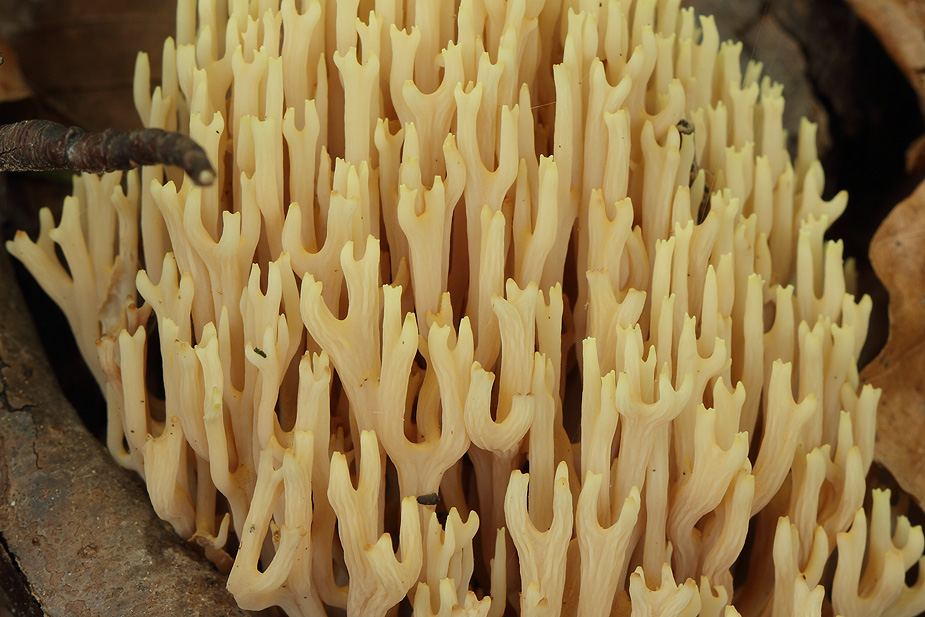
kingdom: Fungi
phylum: Basidiomycota
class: Agaricomycetes
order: Gomphales
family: Gomphaceae
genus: Ramaria
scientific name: Ramaria stricta
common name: rank koralsvamp
